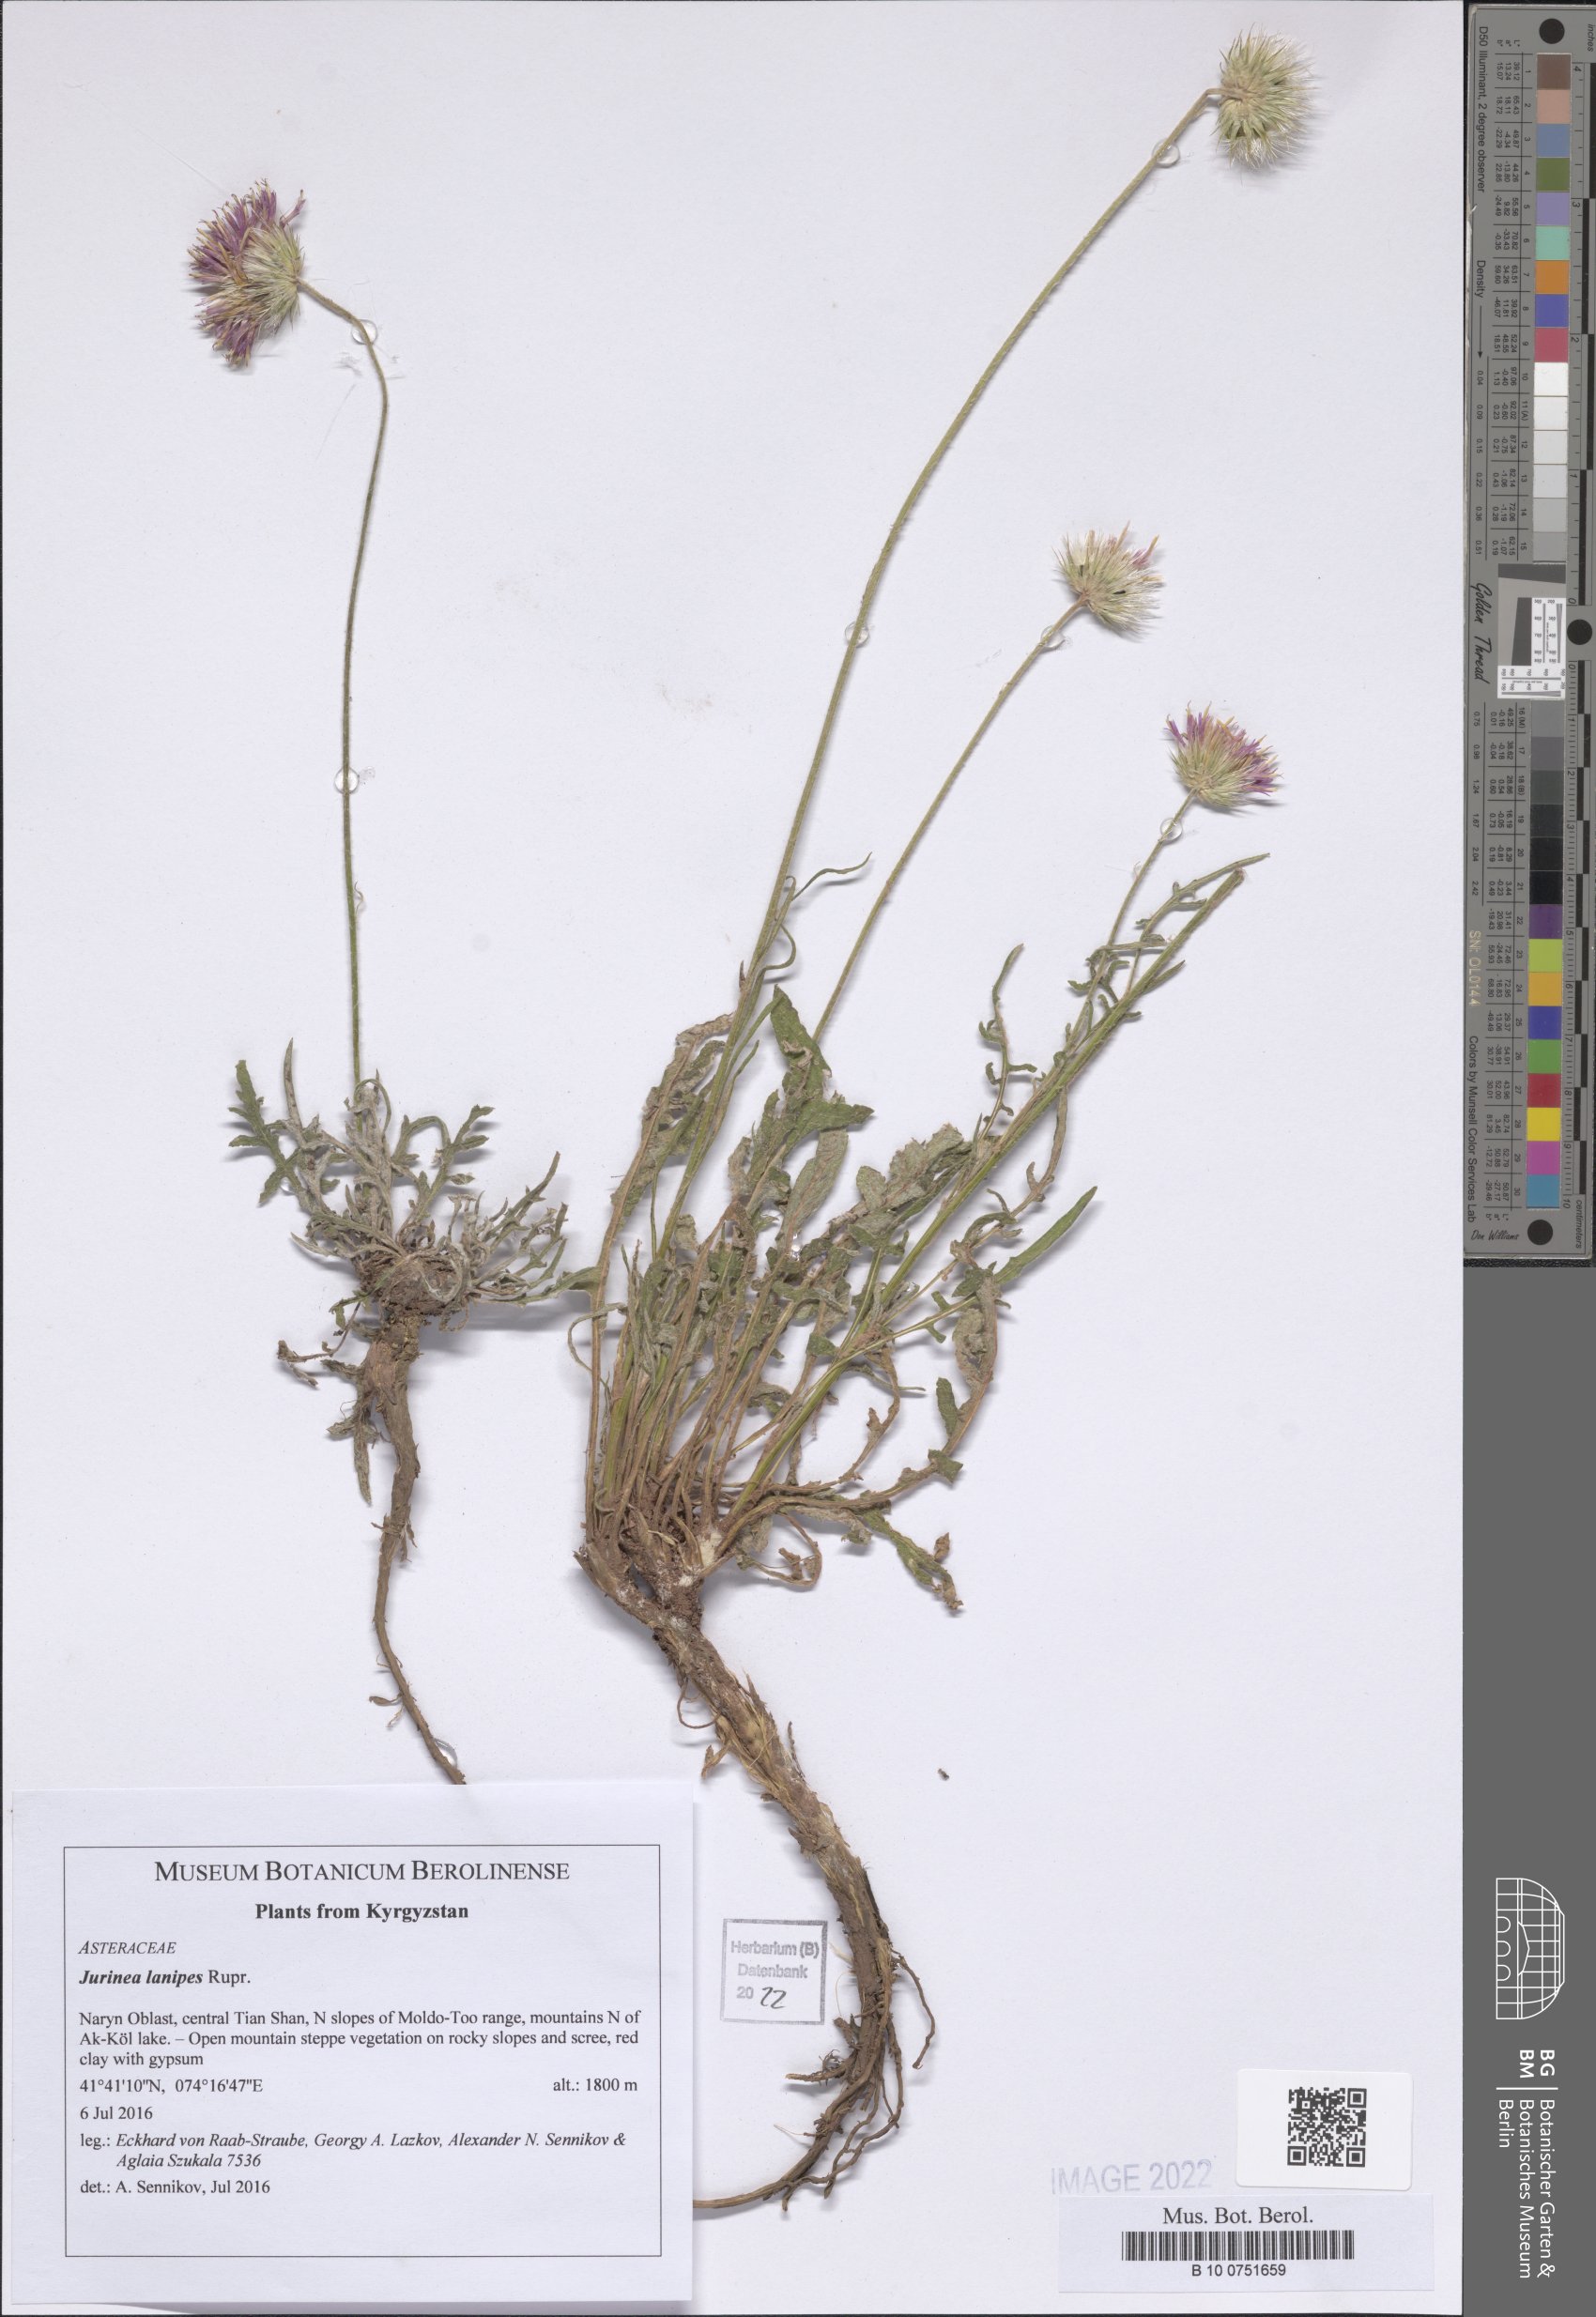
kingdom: Plantae
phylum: Tracheophyta
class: Magnoliopsida
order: Asterales
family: Asteraceae
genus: Jurinea
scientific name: Jurinea lanipes
